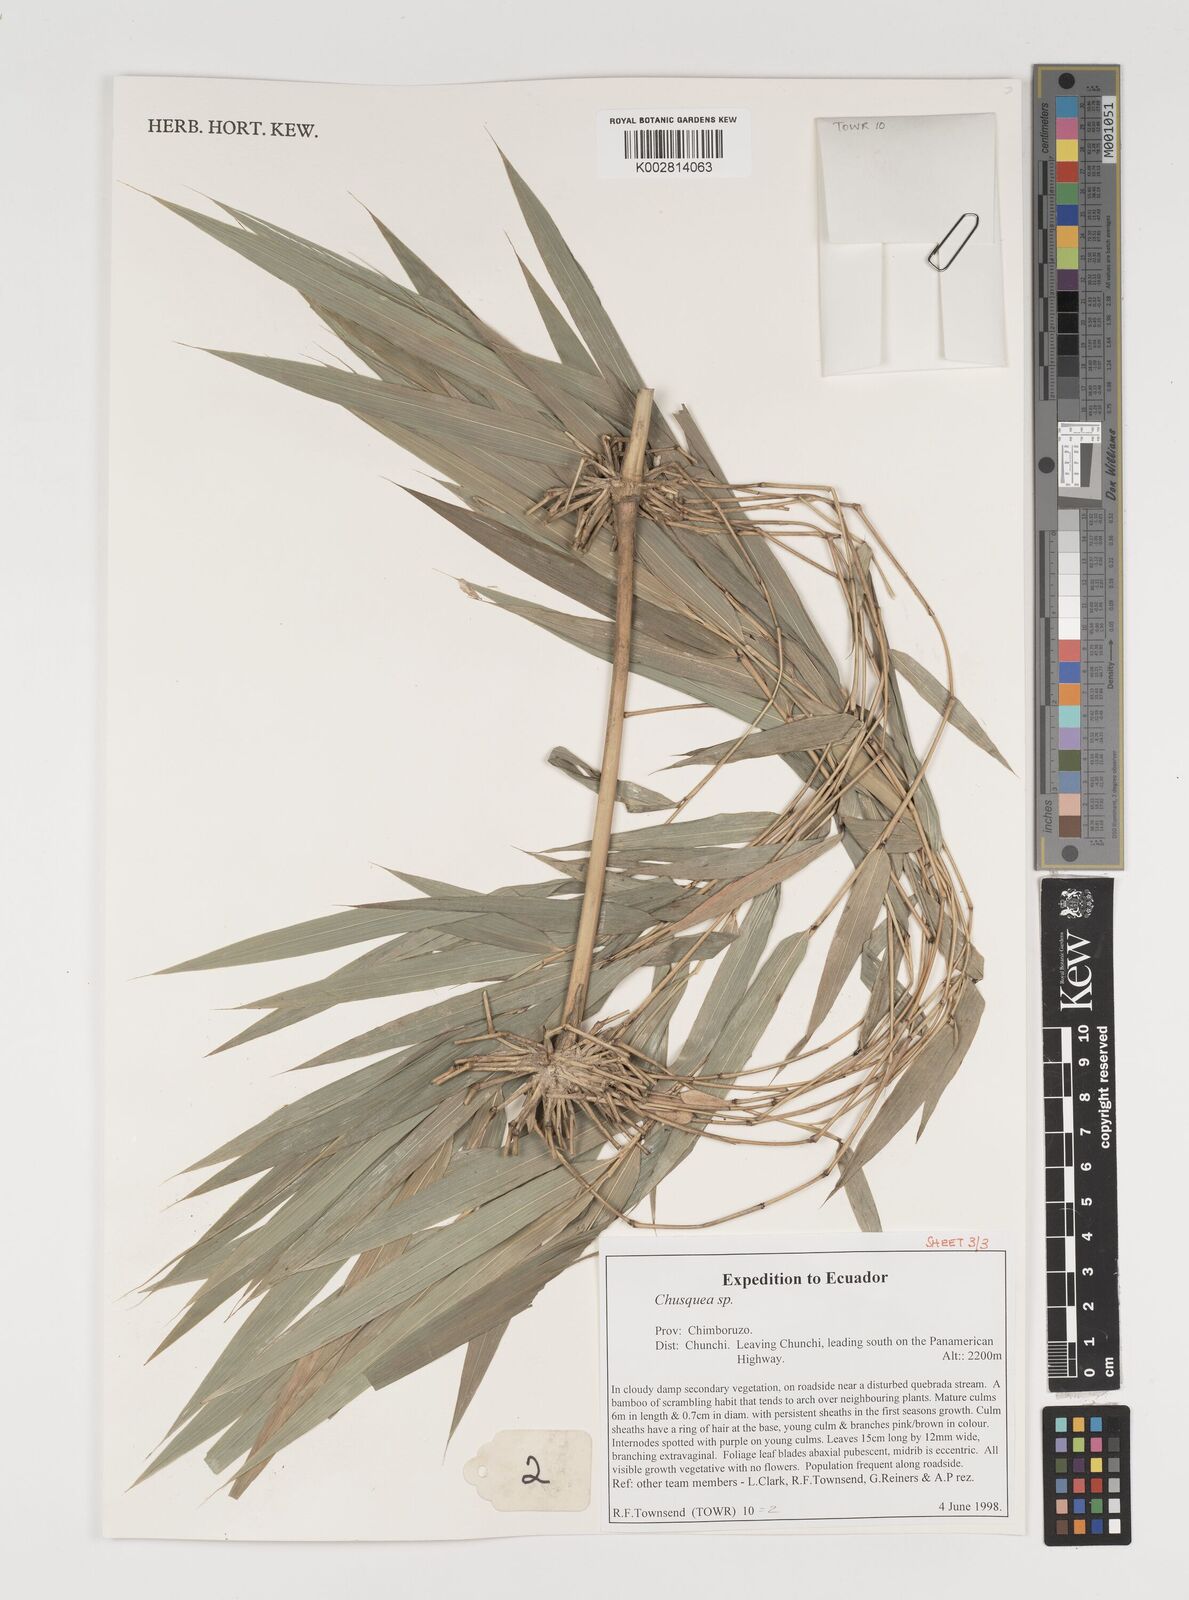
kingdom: Plantae
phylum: Tracheophyta
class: Liliopsida
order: Poales
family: Poaceae
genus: Chusquea
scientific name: Chusquea
